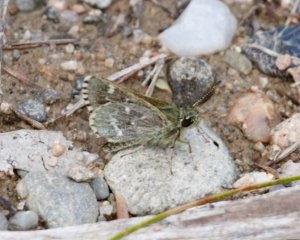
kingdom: Animalia
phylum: Arthropoda
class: Insecta
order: Lepidoptera
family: Hesperiidae
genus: Mastor
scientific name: Mastor hegon
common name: Pepper and Salt Skipper
